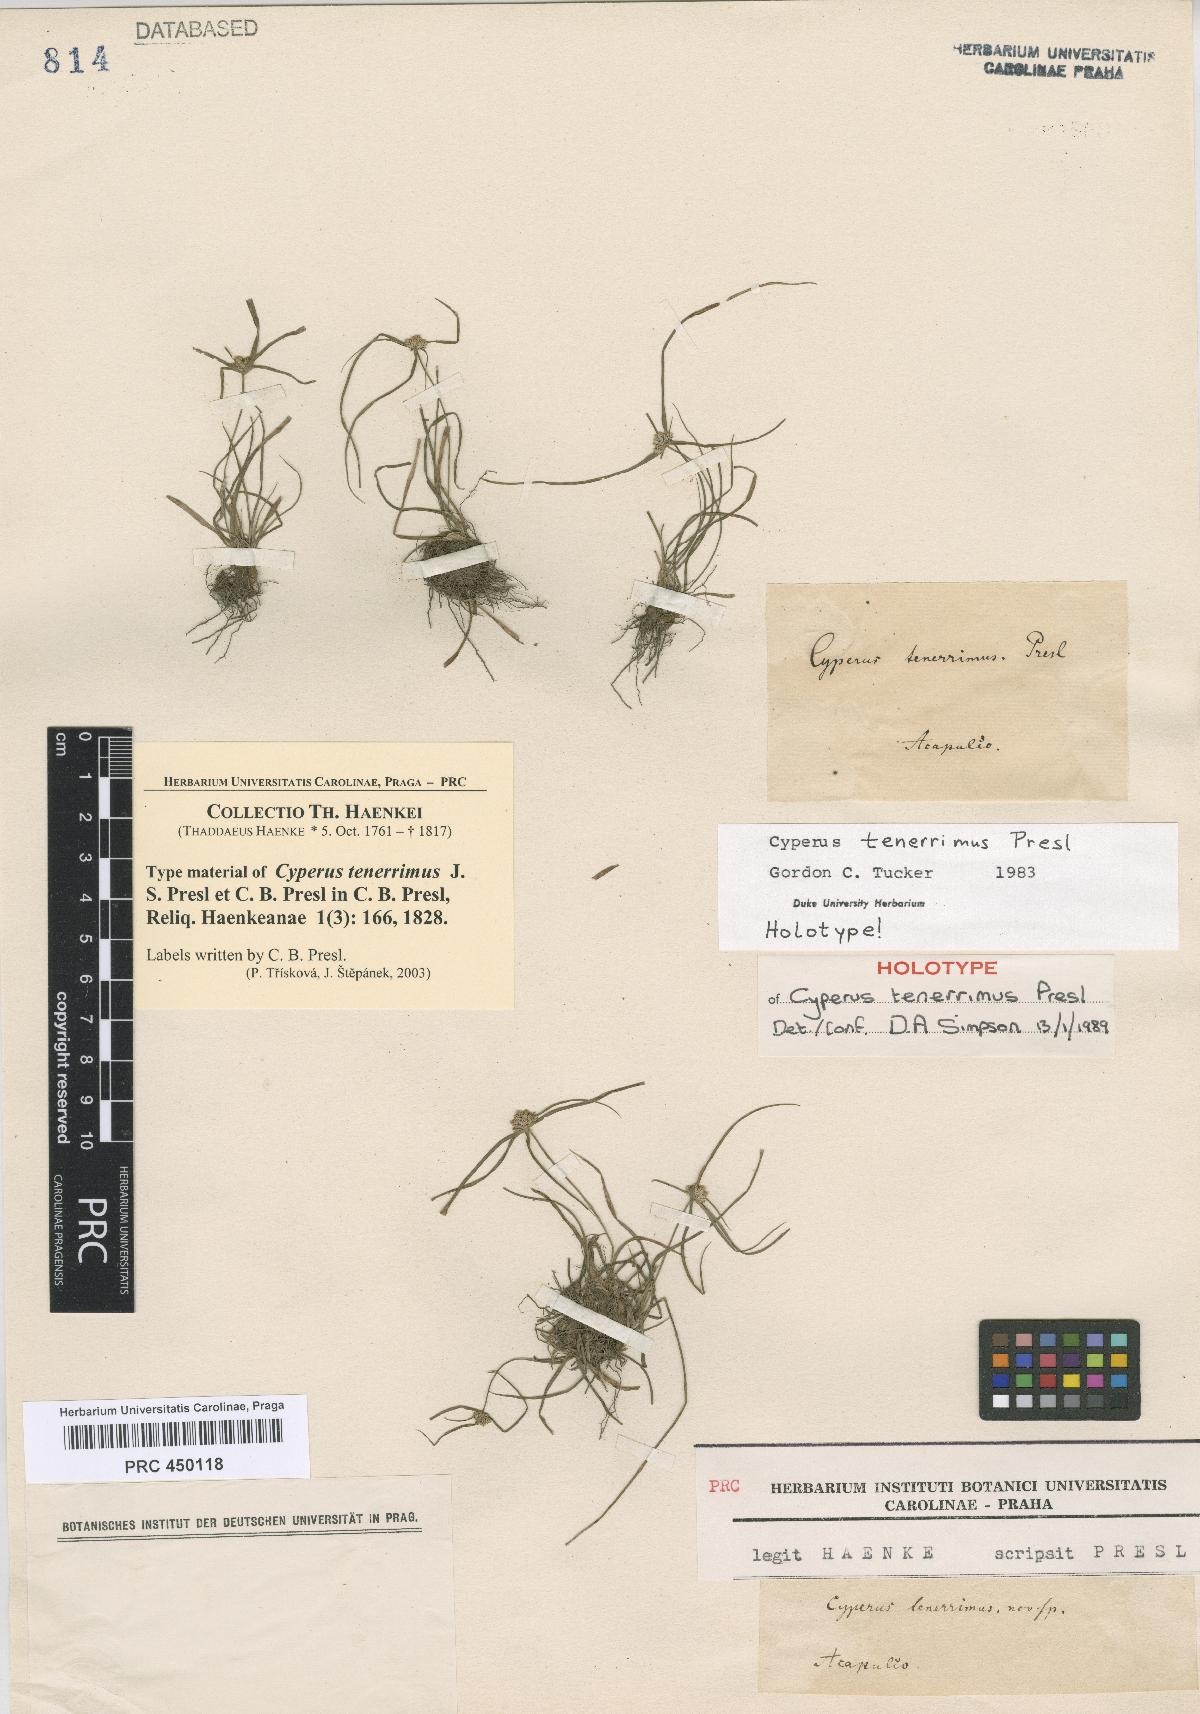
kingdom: Plantae
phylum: Tracheophyta
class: Liliopsida
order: Poales
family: Cyperaceae
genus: Cyperus
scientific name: Cyperus tenerrimus
